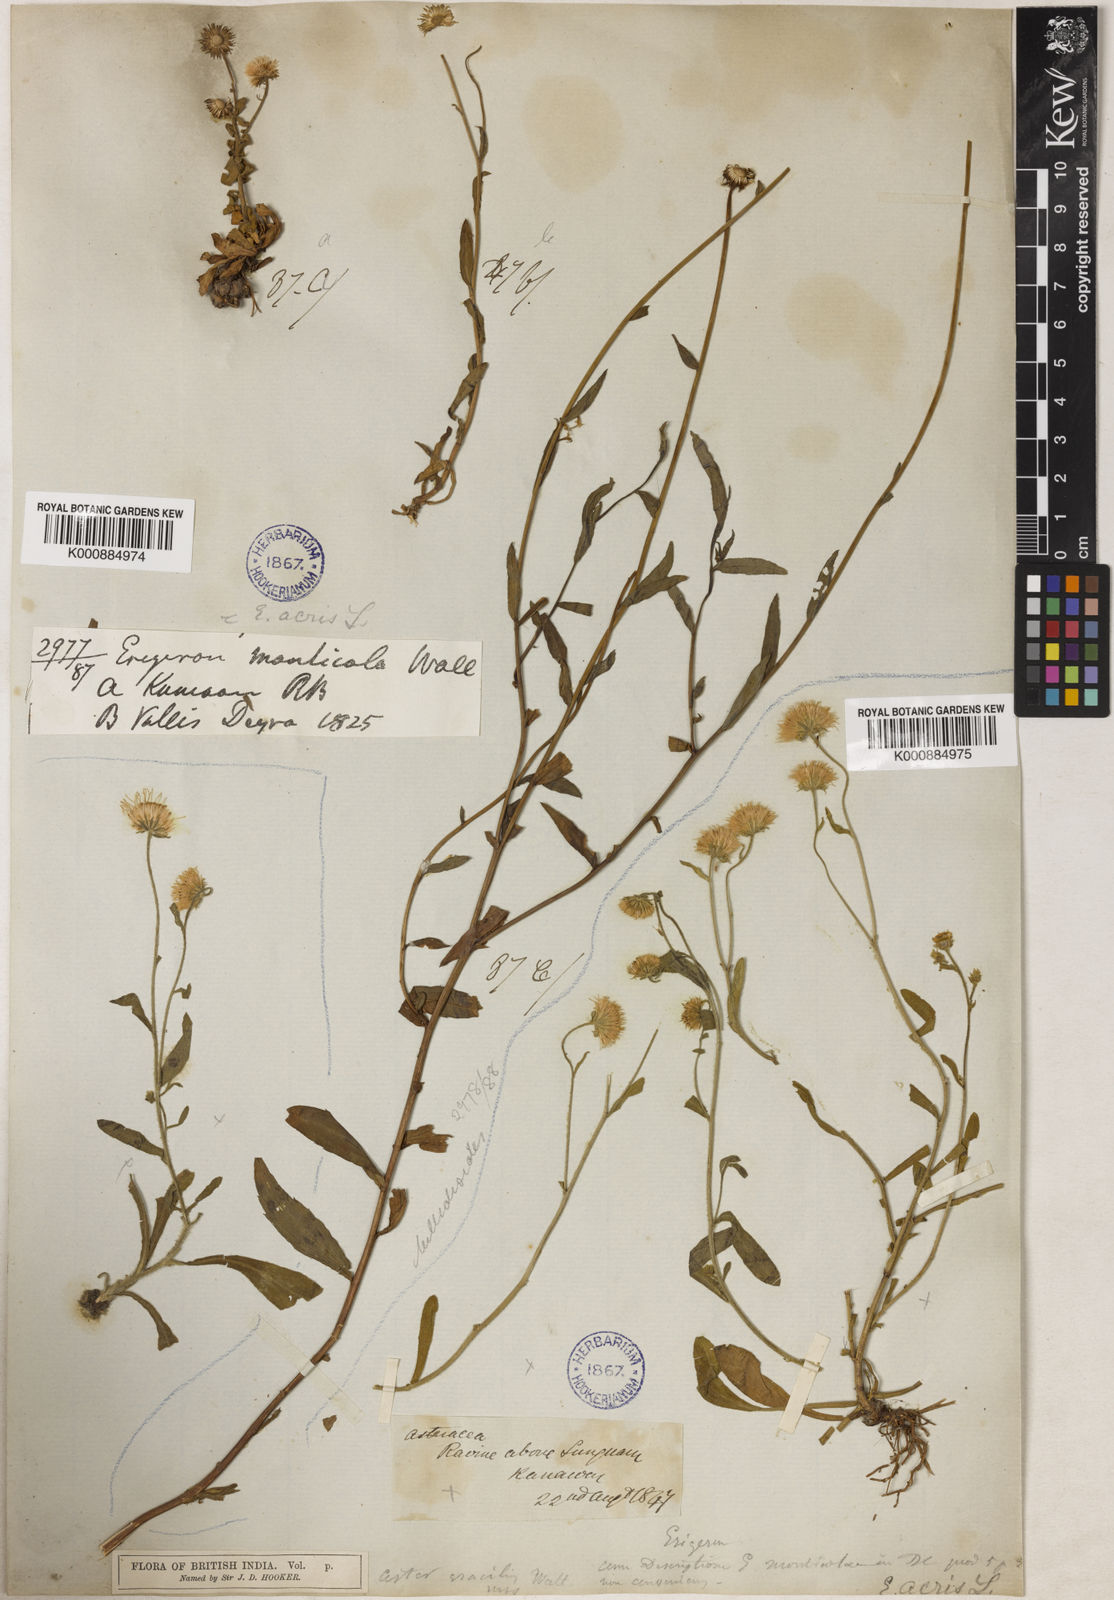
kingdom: Plantae
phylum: Tracheophyta
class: Magnoliopsida
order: Asterales
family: Asteraceae
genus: Erigeron
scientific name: Erigeron monticolus
